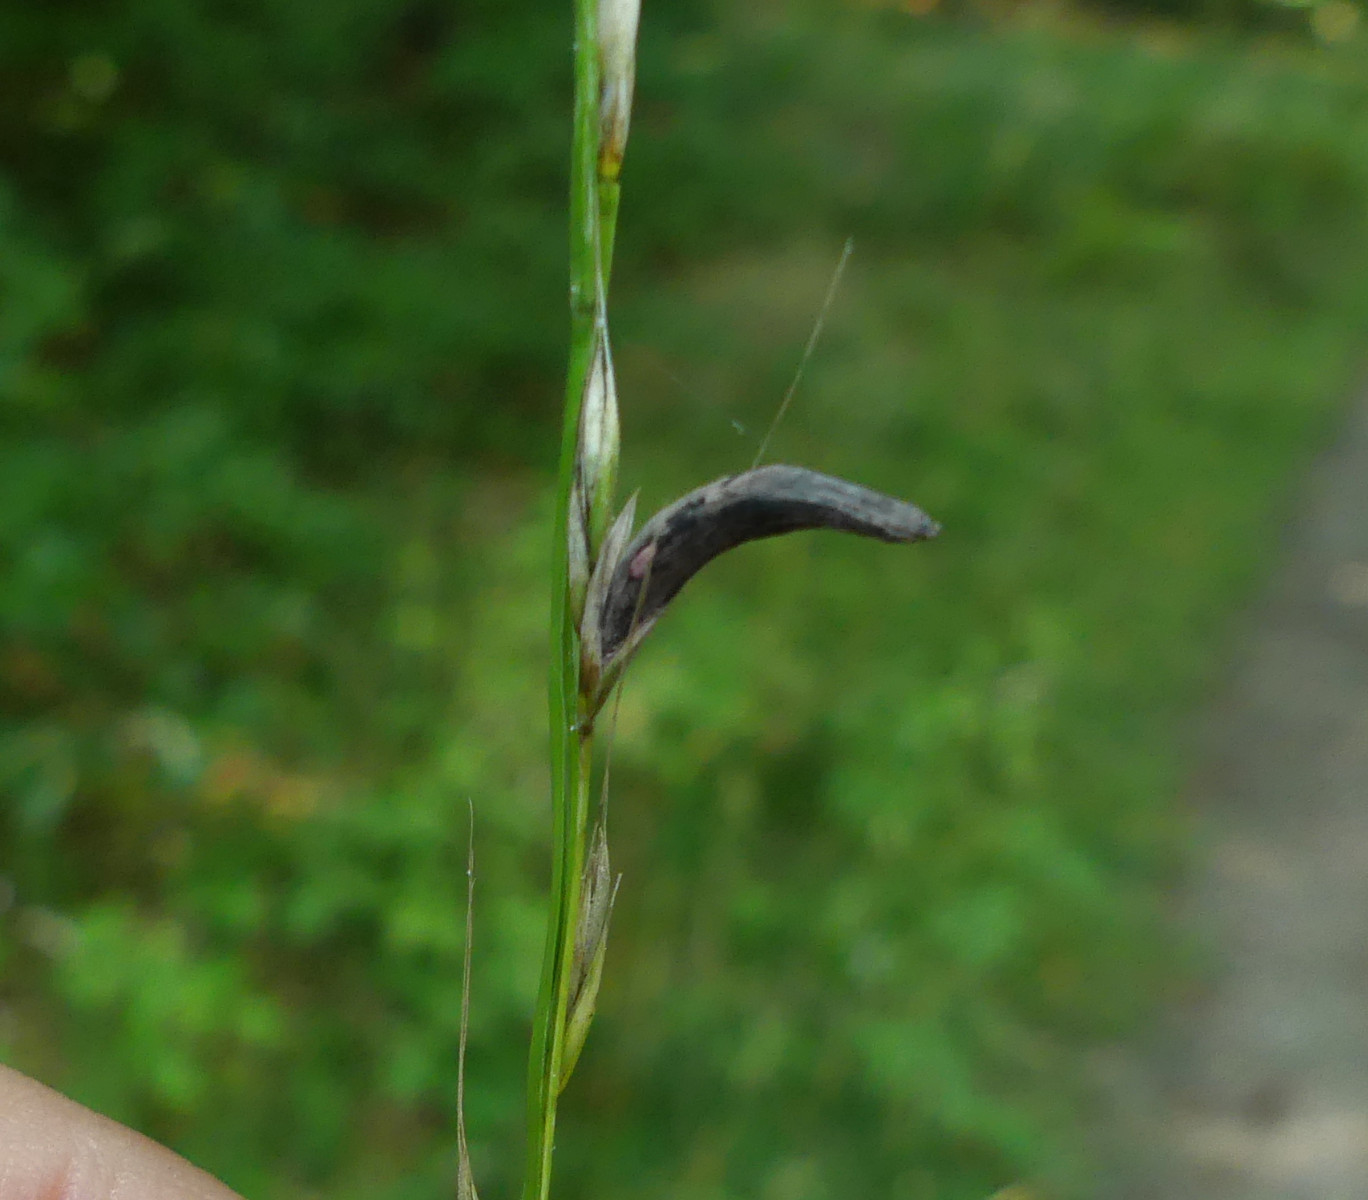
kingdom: Fungi
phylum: Ascomycota
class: Sordariomycetes
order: Hypocreales
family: Clavicipitaceae
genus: Claviceps
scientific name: Claviceps purpurea
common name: almindelig meldrøjer
